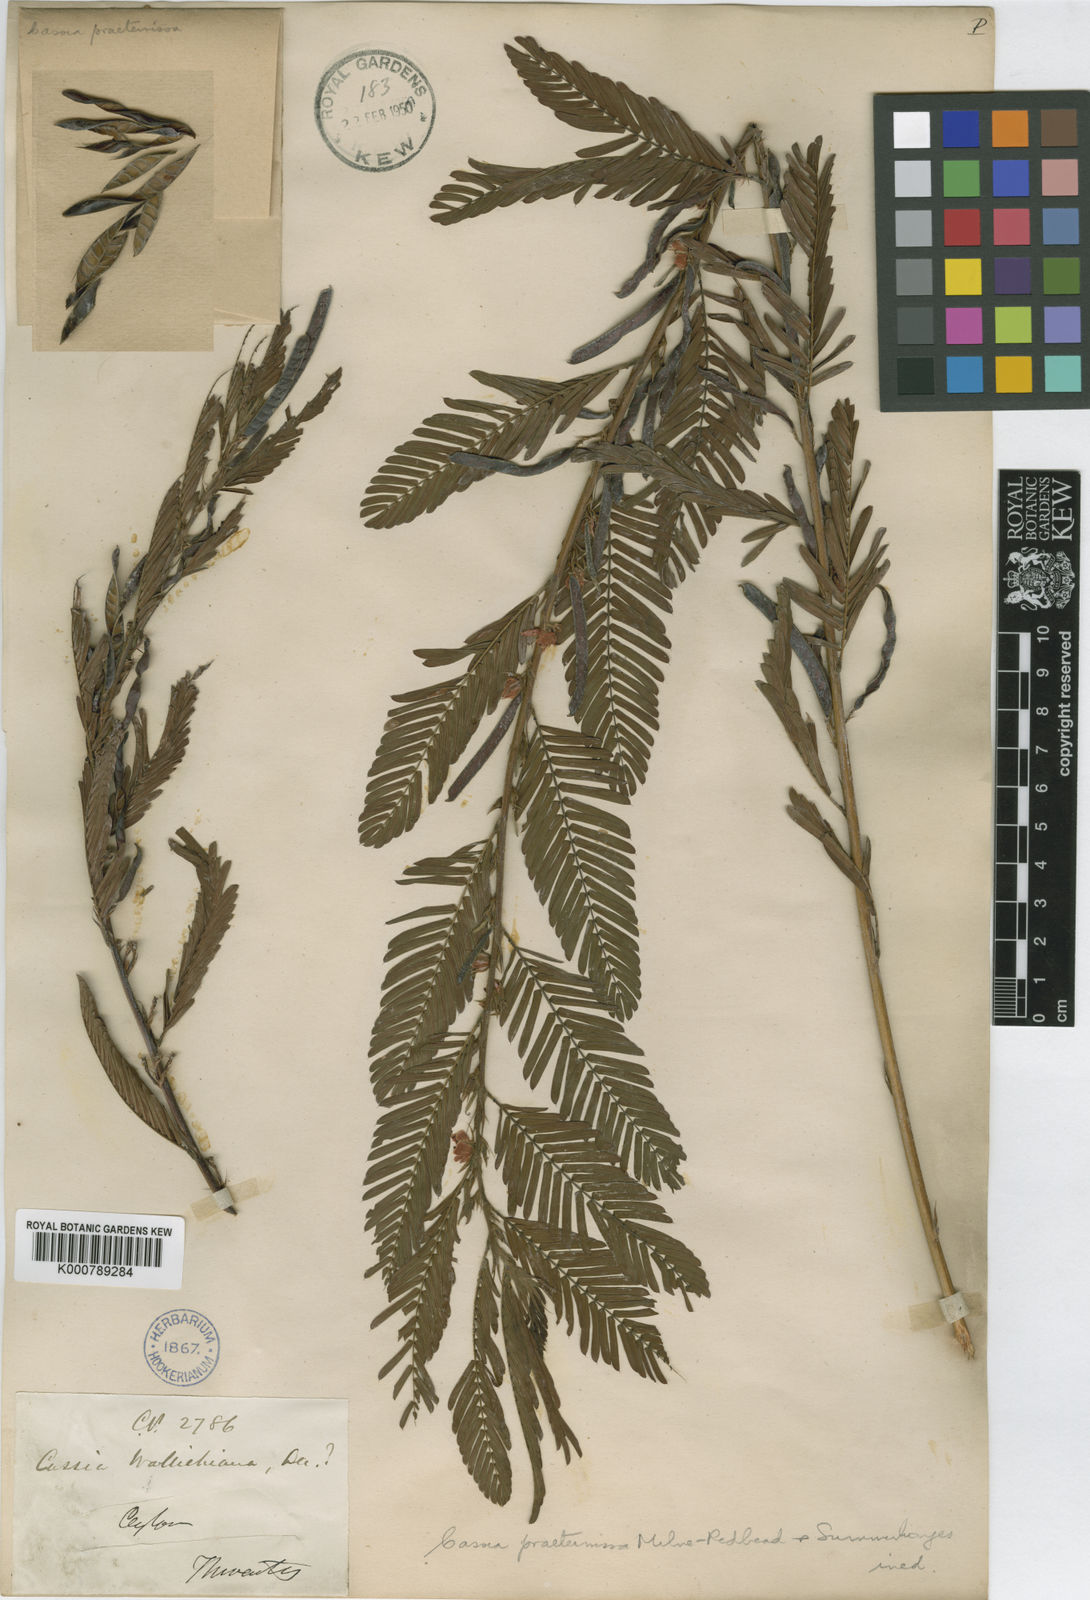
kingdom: Plantae
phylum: Tracheophyta
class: Magnoliopsida
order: Fabales
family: Fabaceae
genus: Cassia
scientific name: Cassia
